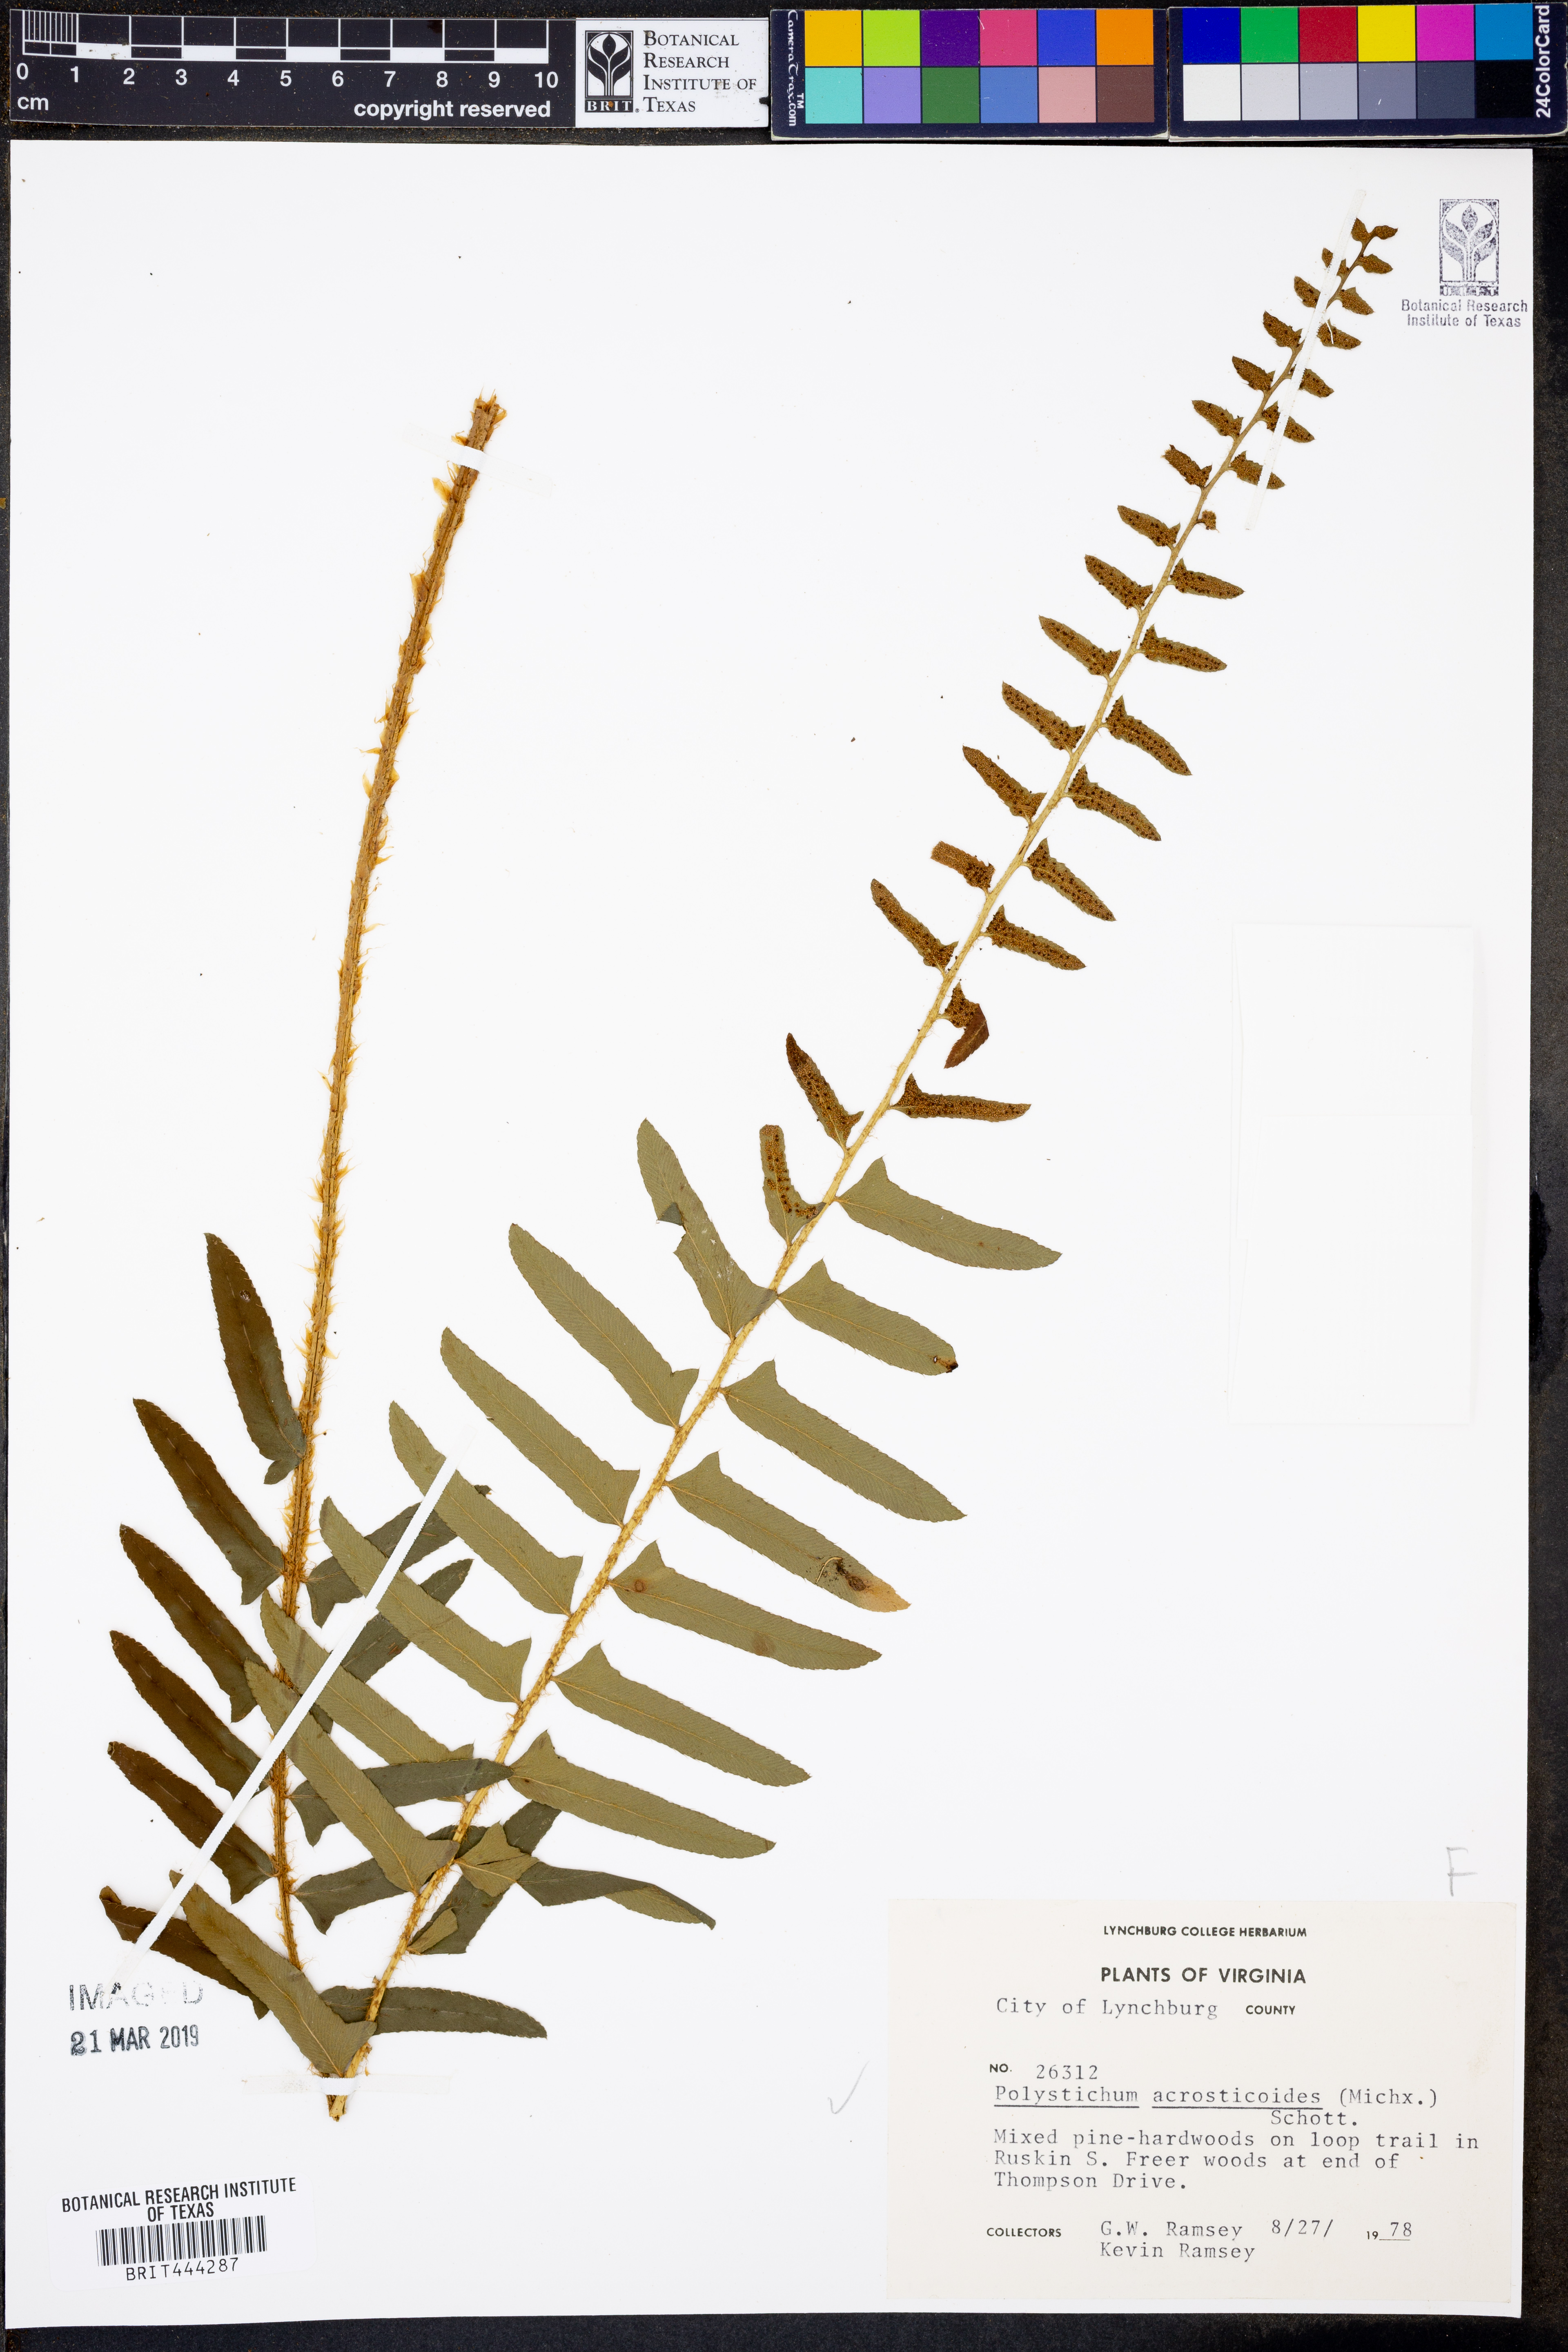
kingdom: Plantae
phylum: Tracheophyta
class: Polypodiopsida
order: Polypodiales
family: Dryopteridaceae
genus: Polystichum
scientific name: Polystichum acrostichoides
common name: Christmas fern
